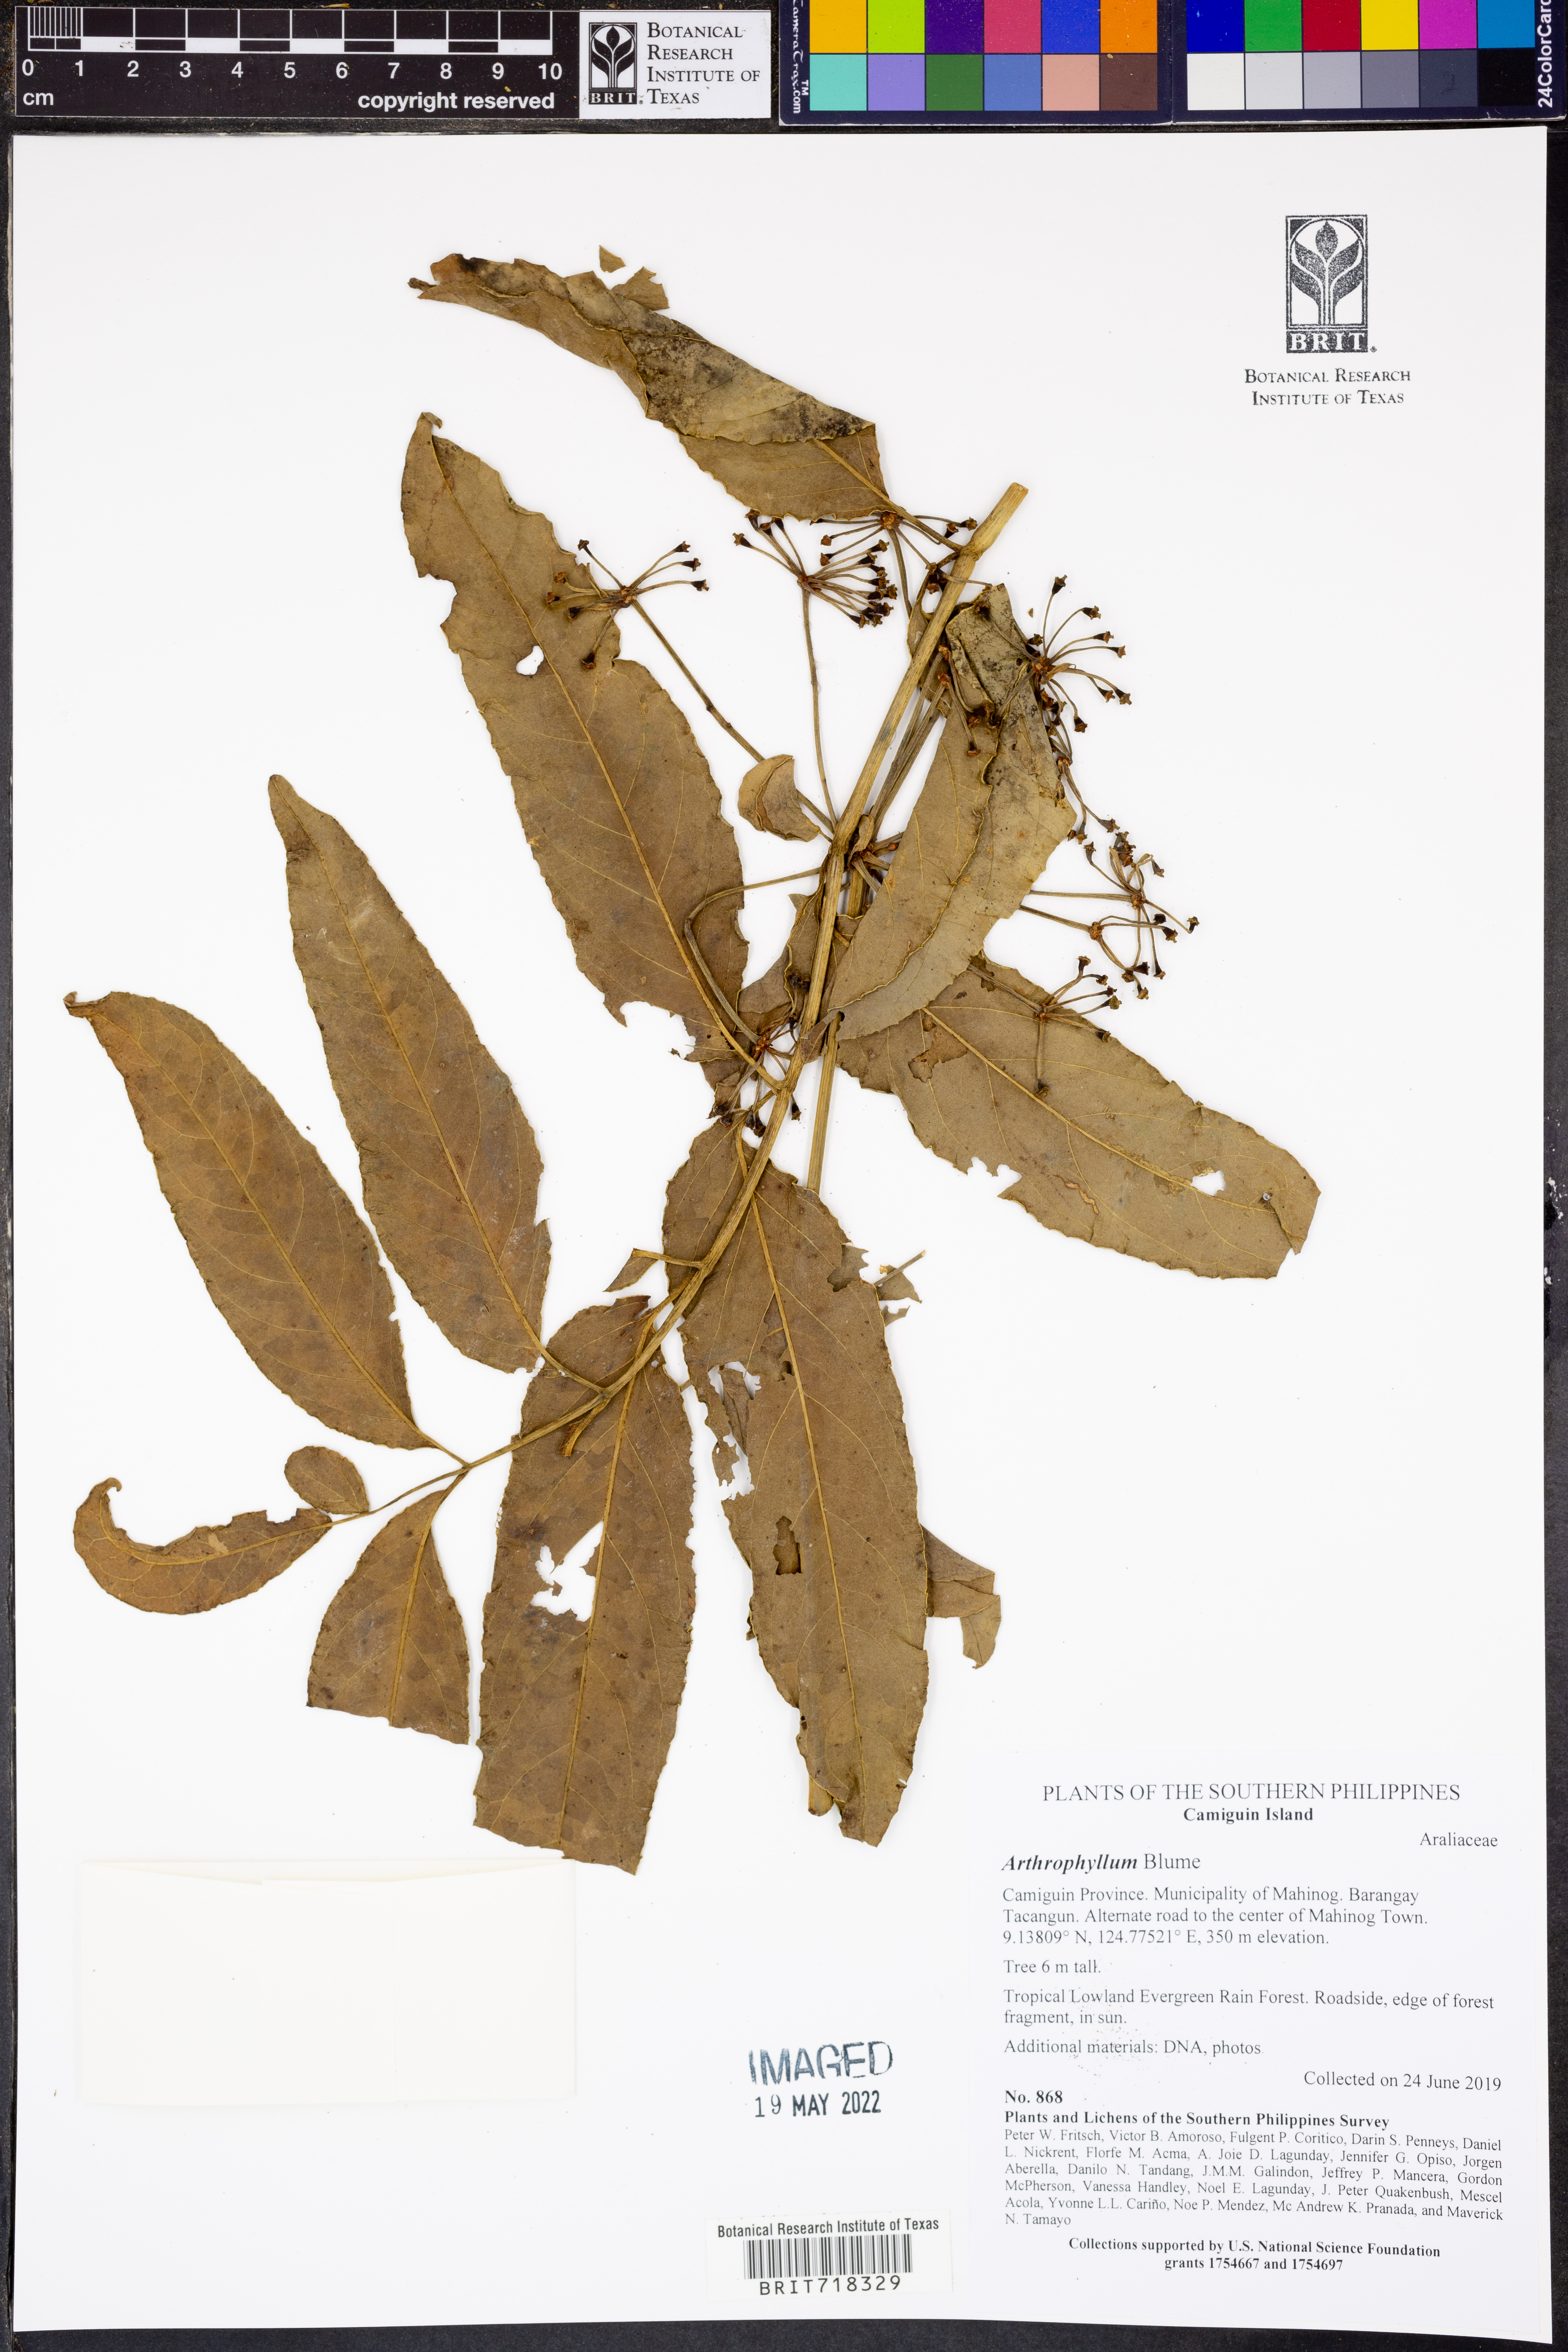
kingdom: Plantae
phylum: Tracheophyta
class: Magnoliopsida
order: Lamiales
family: Bignoniaceae
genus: Arthrophyllum
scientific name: Arthrophyllum
